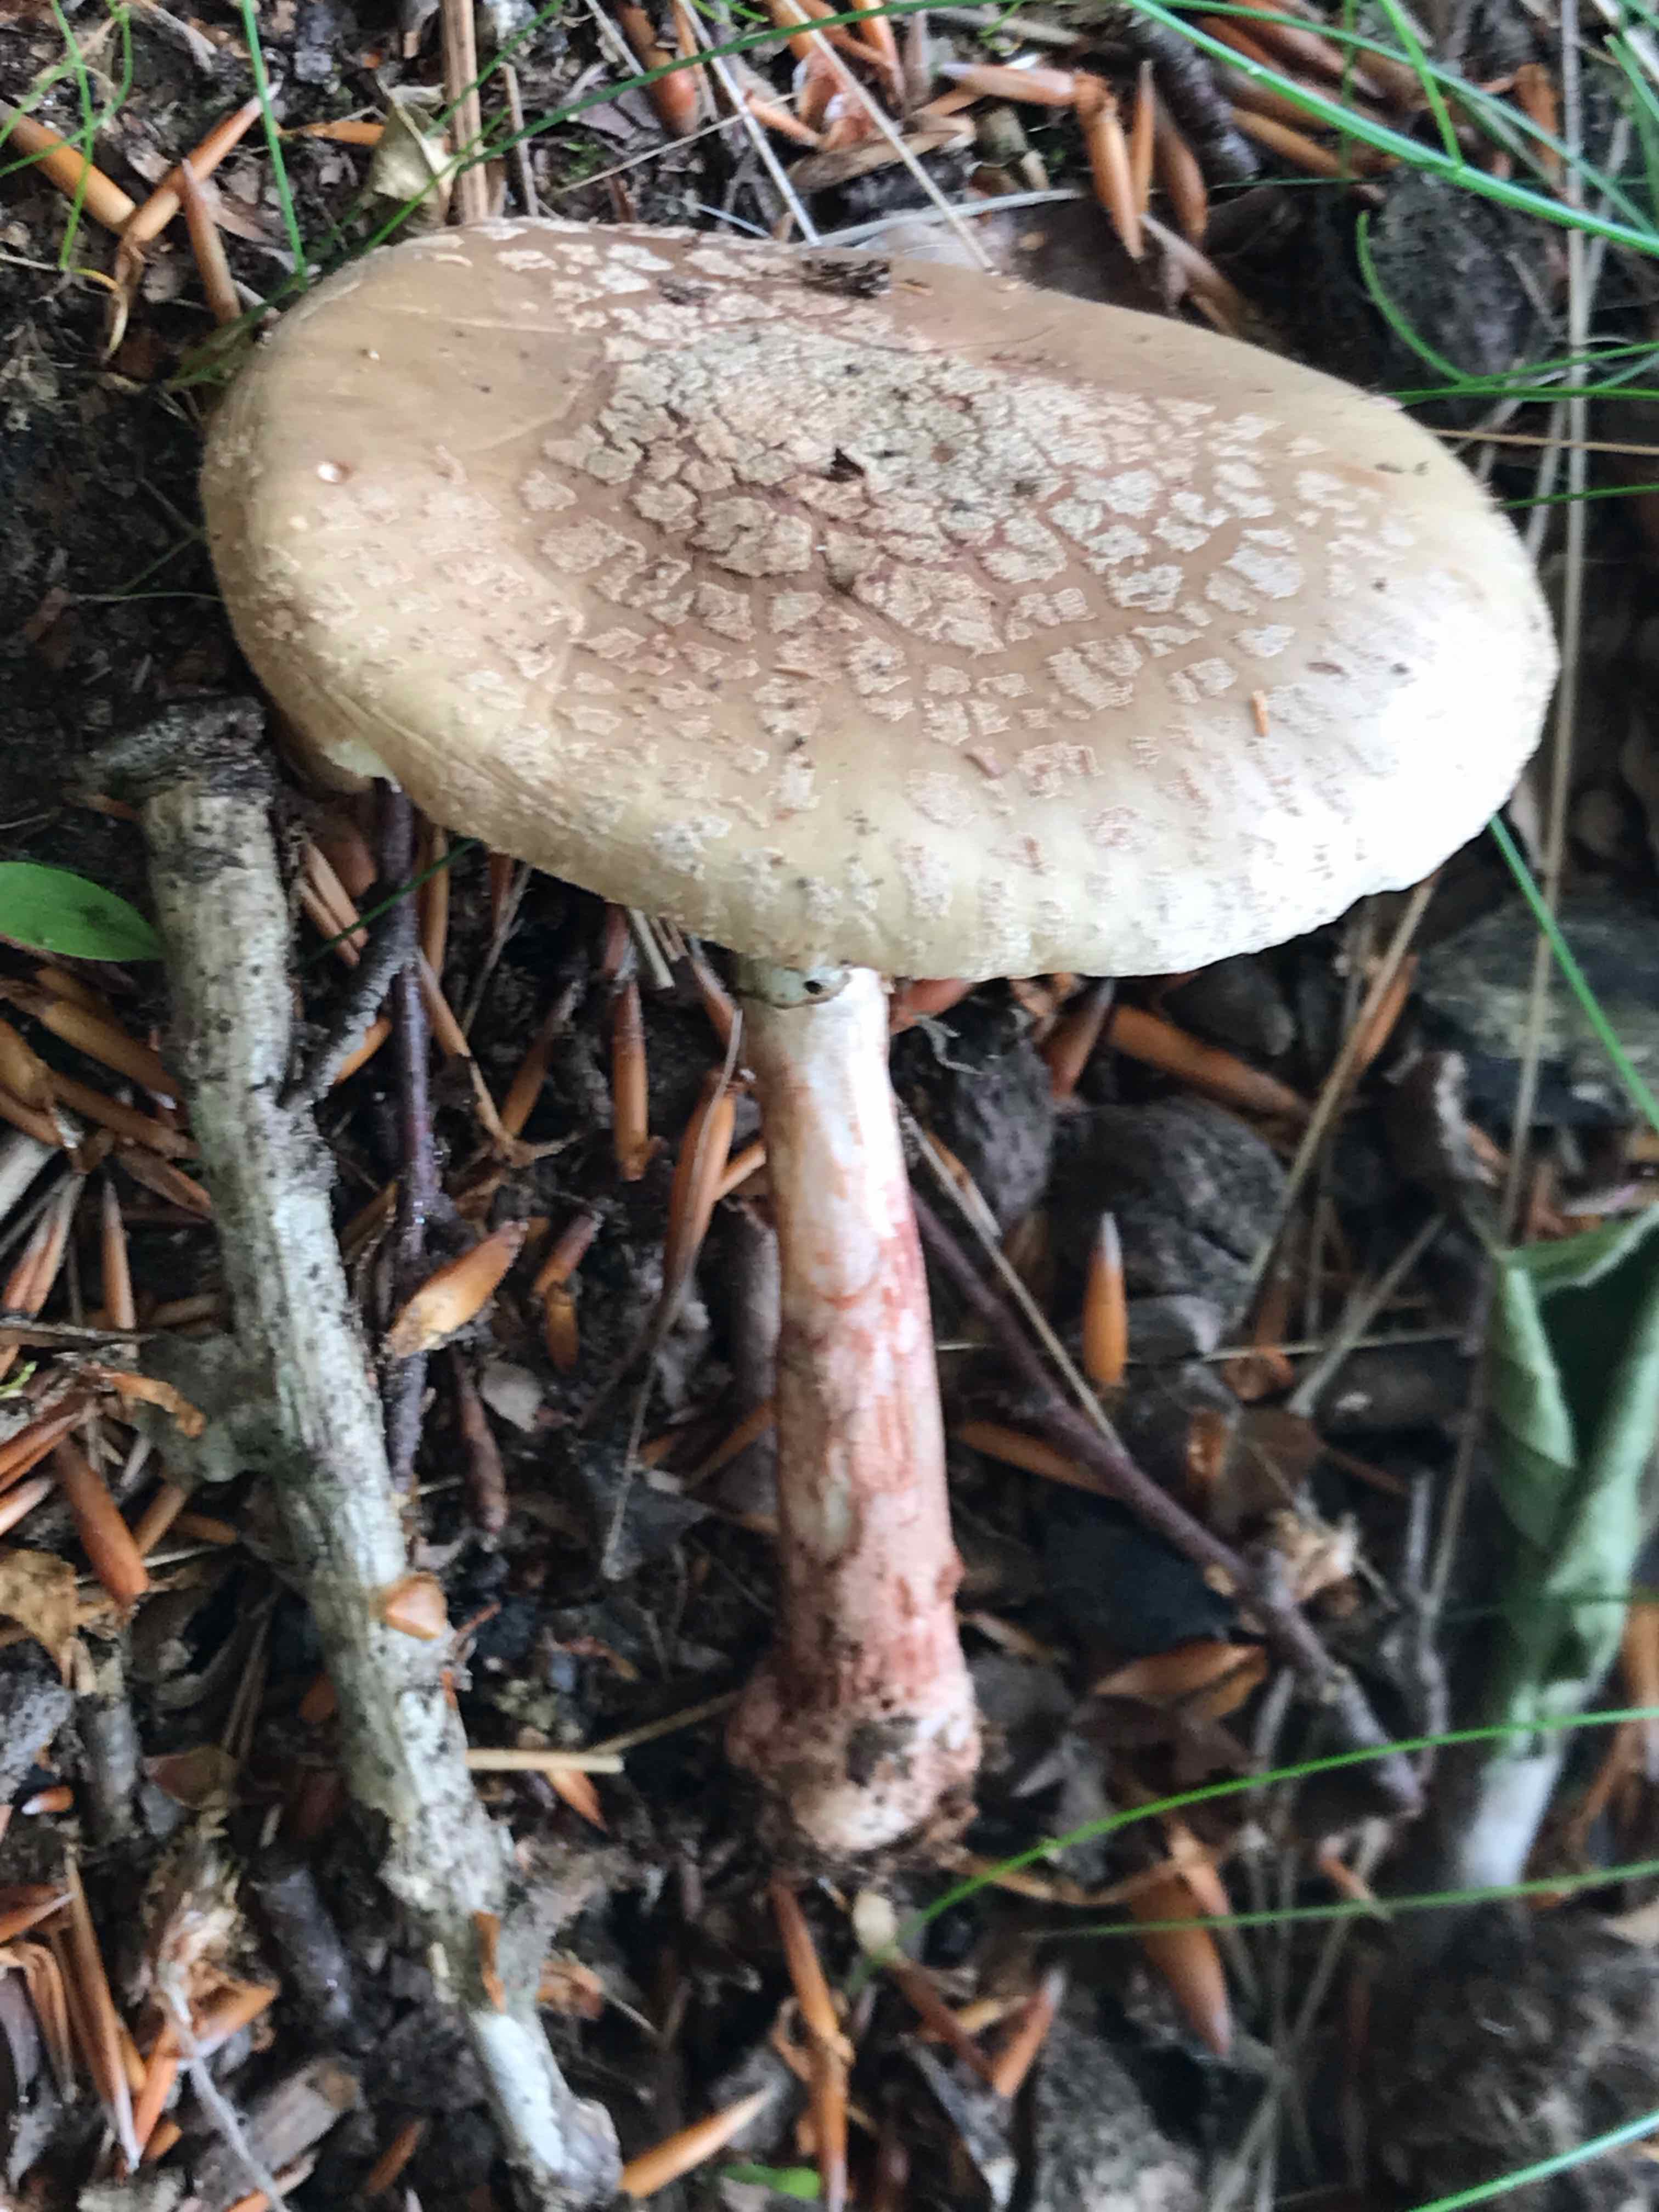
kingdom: Fungi
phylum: Basidiomycota
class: Agaricomycetes
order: Agaricales
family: Amanitaceae
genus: Amanita
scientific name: Amanita rubescens
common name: rødmende fluesvamp
